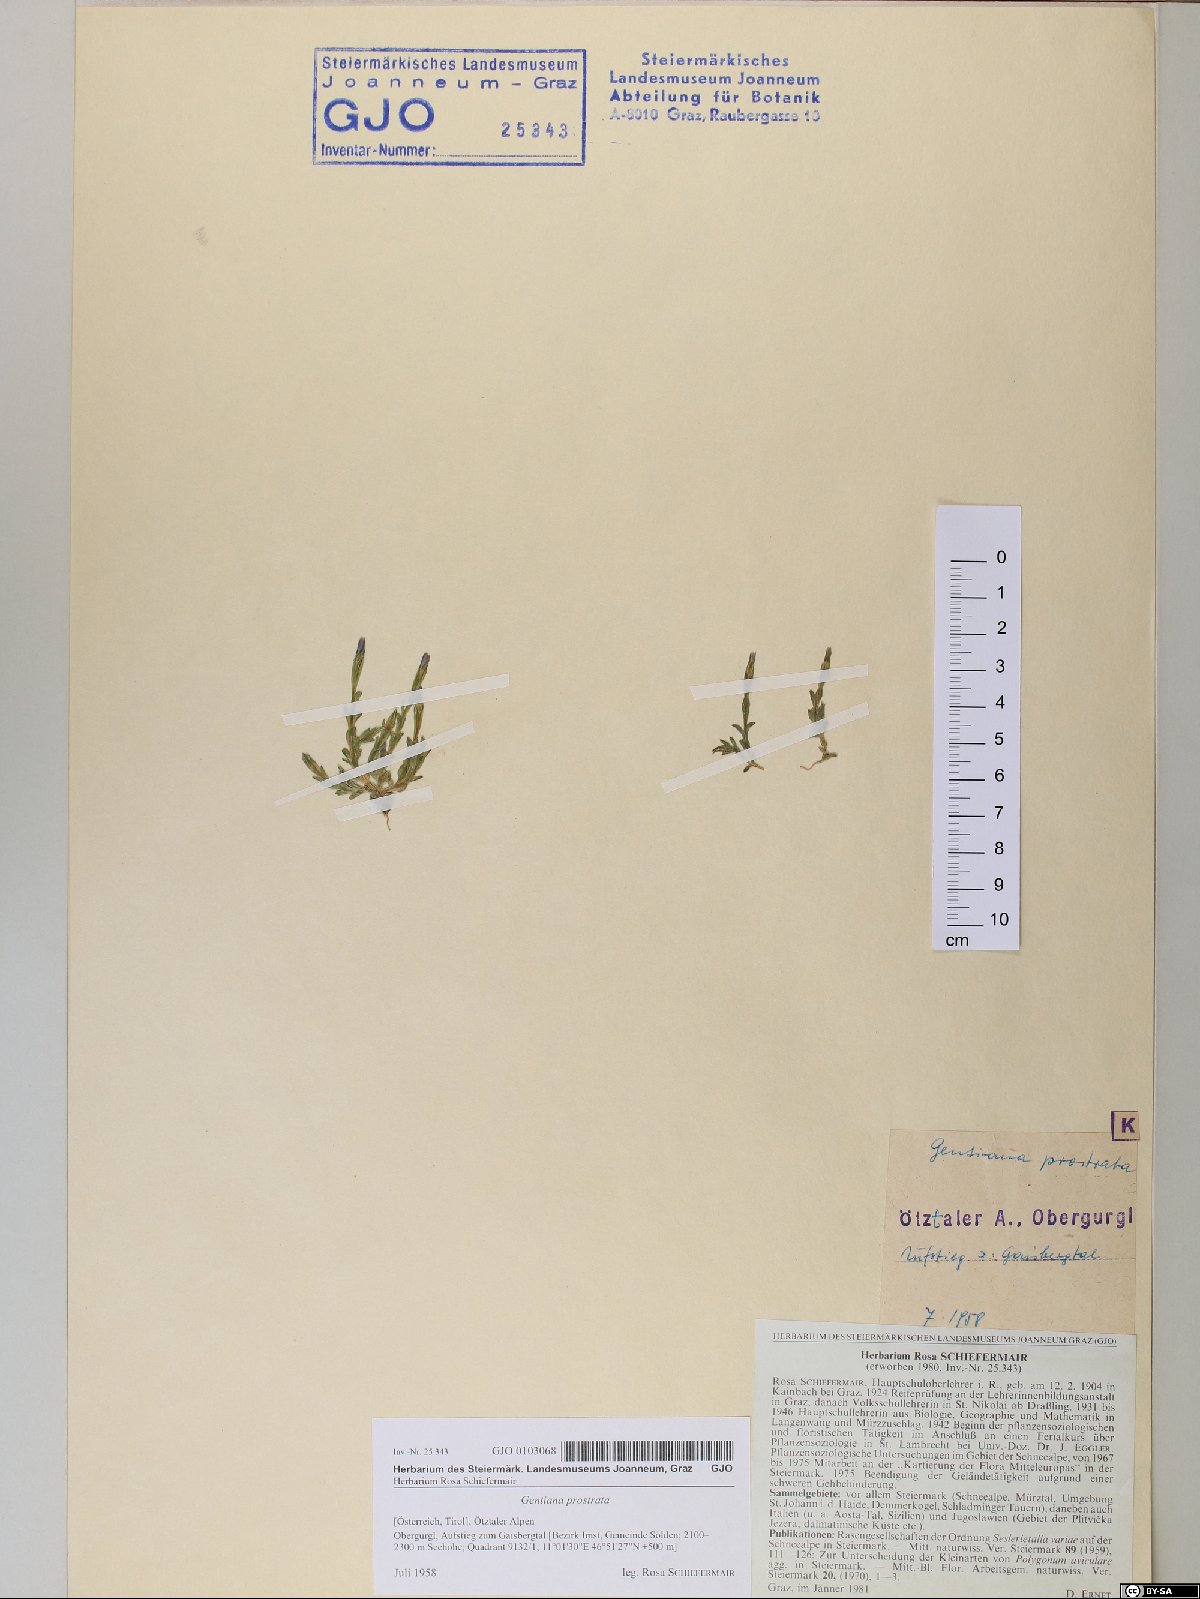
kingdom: Plantae
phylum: Tracheophyta
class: Magnoliopsida
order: Gentianales
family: Gentianaceae
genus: Gentiana
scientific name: Gentiana prostrata
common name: Moss gentian
